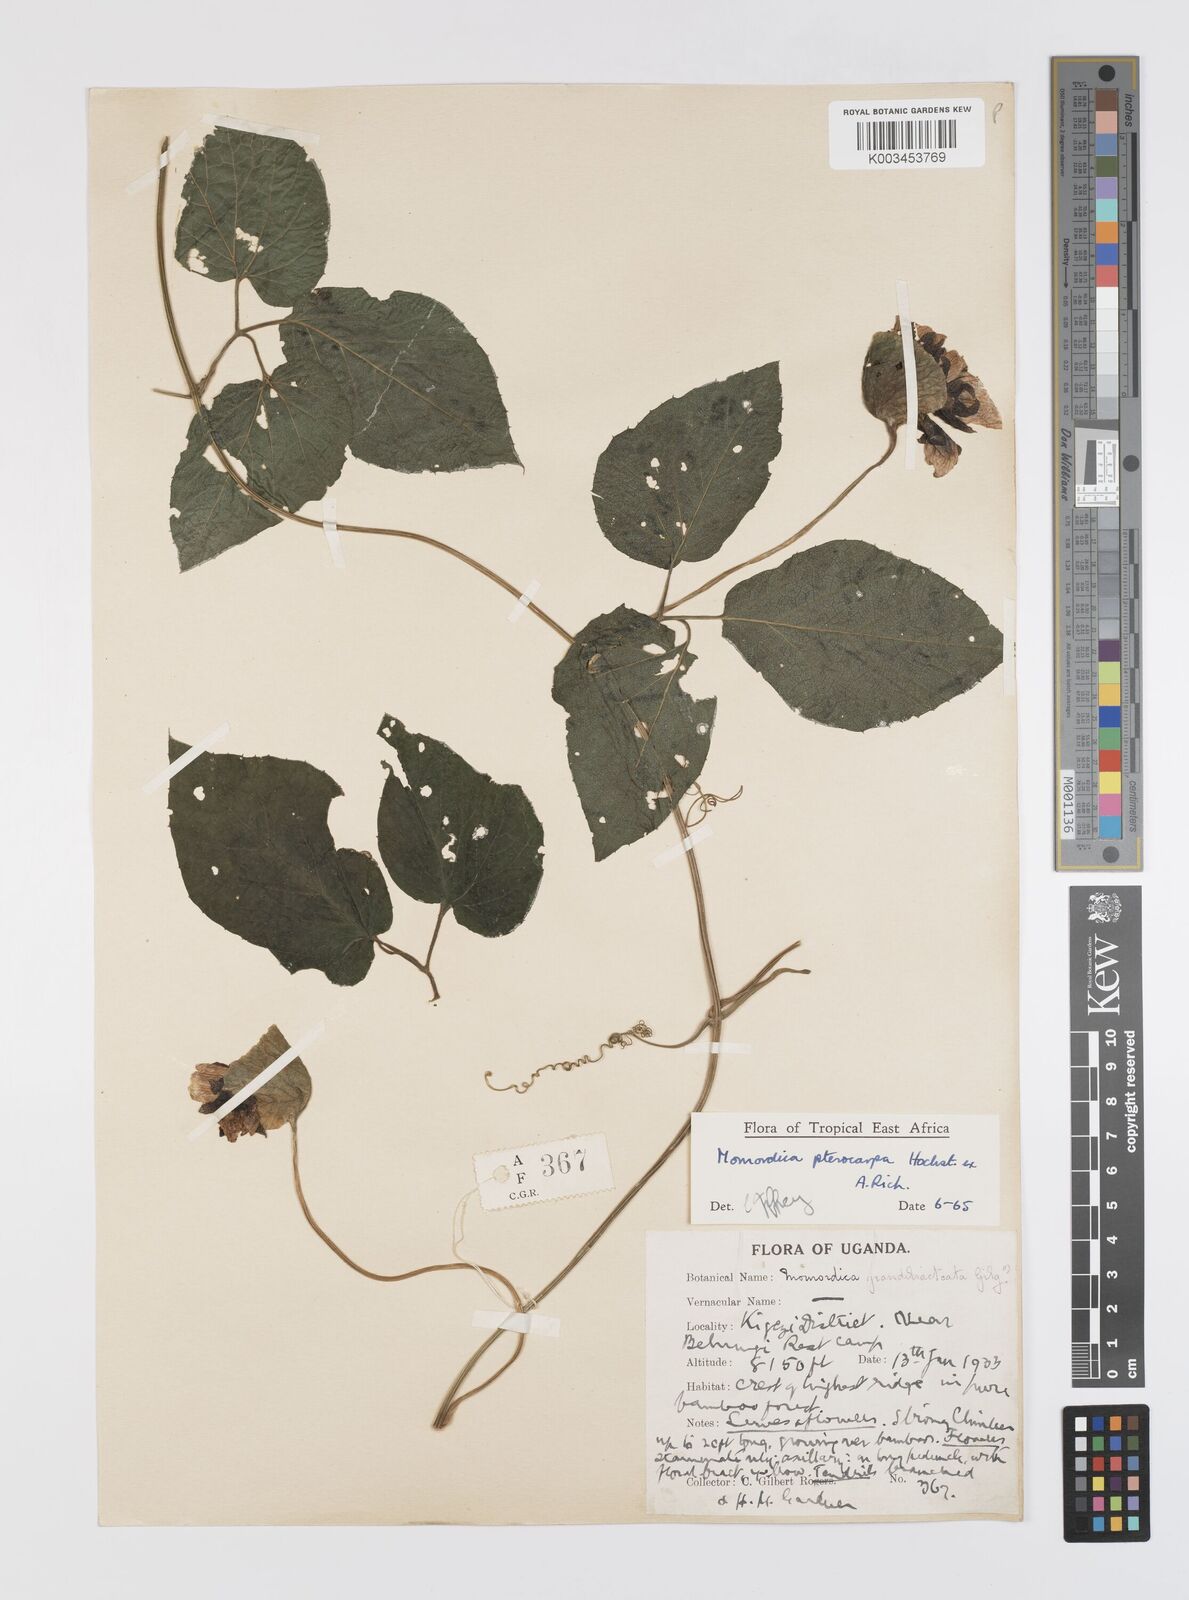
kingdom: Plantae
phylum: Tracheophyta
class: Magnoliopsida
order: Cucurbitales
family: Cucurbitaceae
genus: Momordica
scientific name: Momordica pterocarpa
